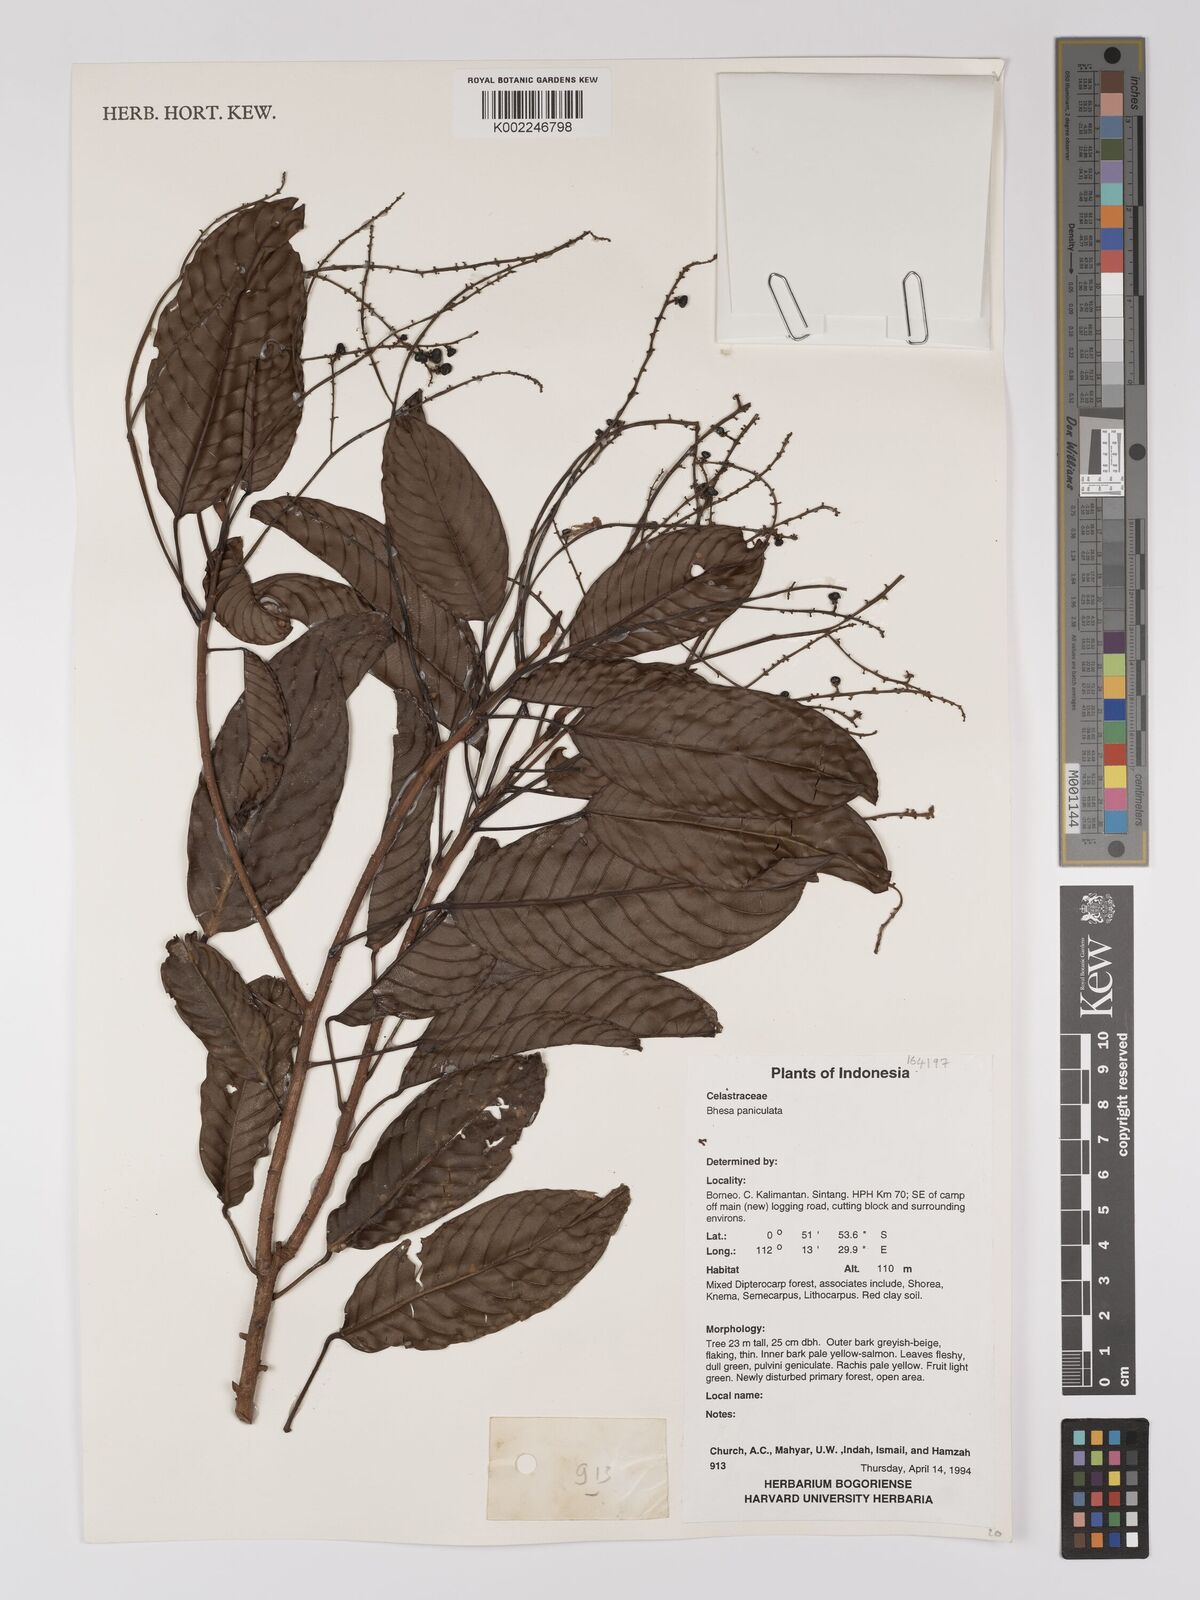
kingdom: Plantae
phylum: Tracheophyta
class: Magnoliopsida
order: Malpighiales
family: Centroplacaceae
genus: Bhesa
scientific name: Bhesa paniculata
